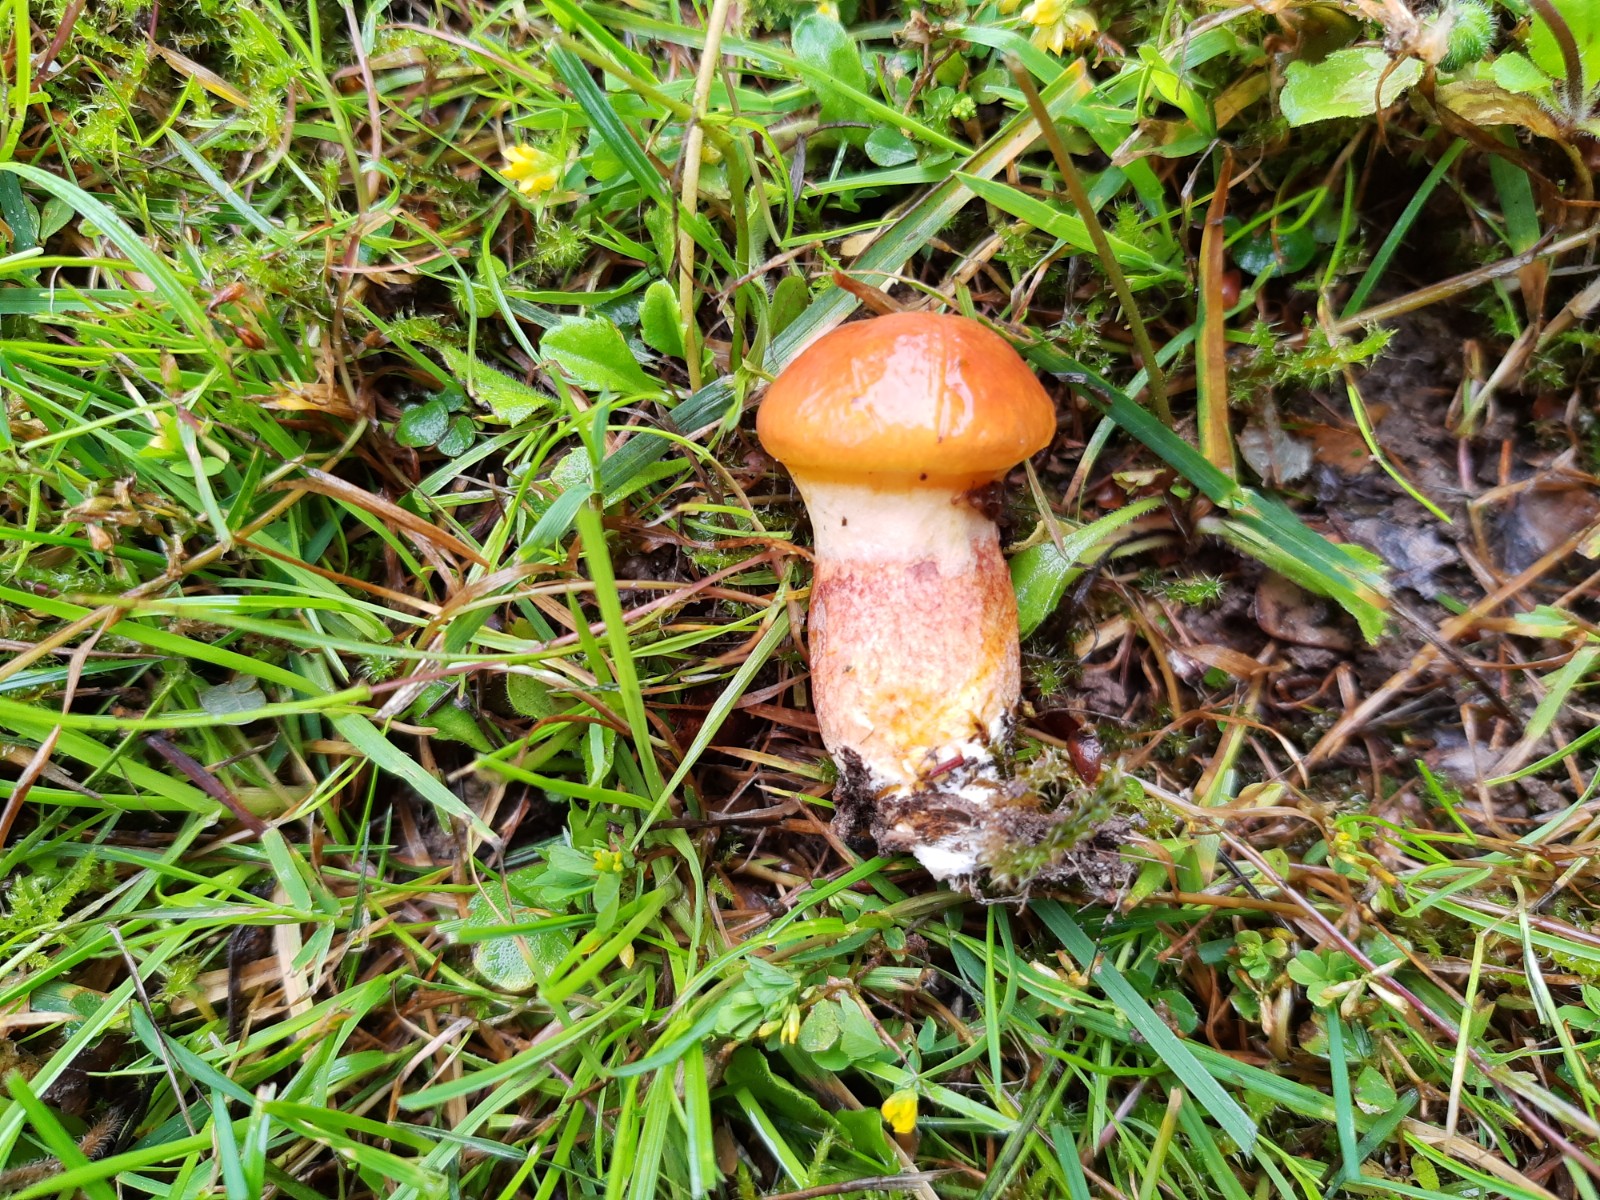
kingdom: Fungi
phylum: Basidiomycota
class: Agaricomycetes
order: Boletales
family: Suillaceae
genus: Suillus
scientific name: Suillus grevillei
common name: lærke-slimrørhat
